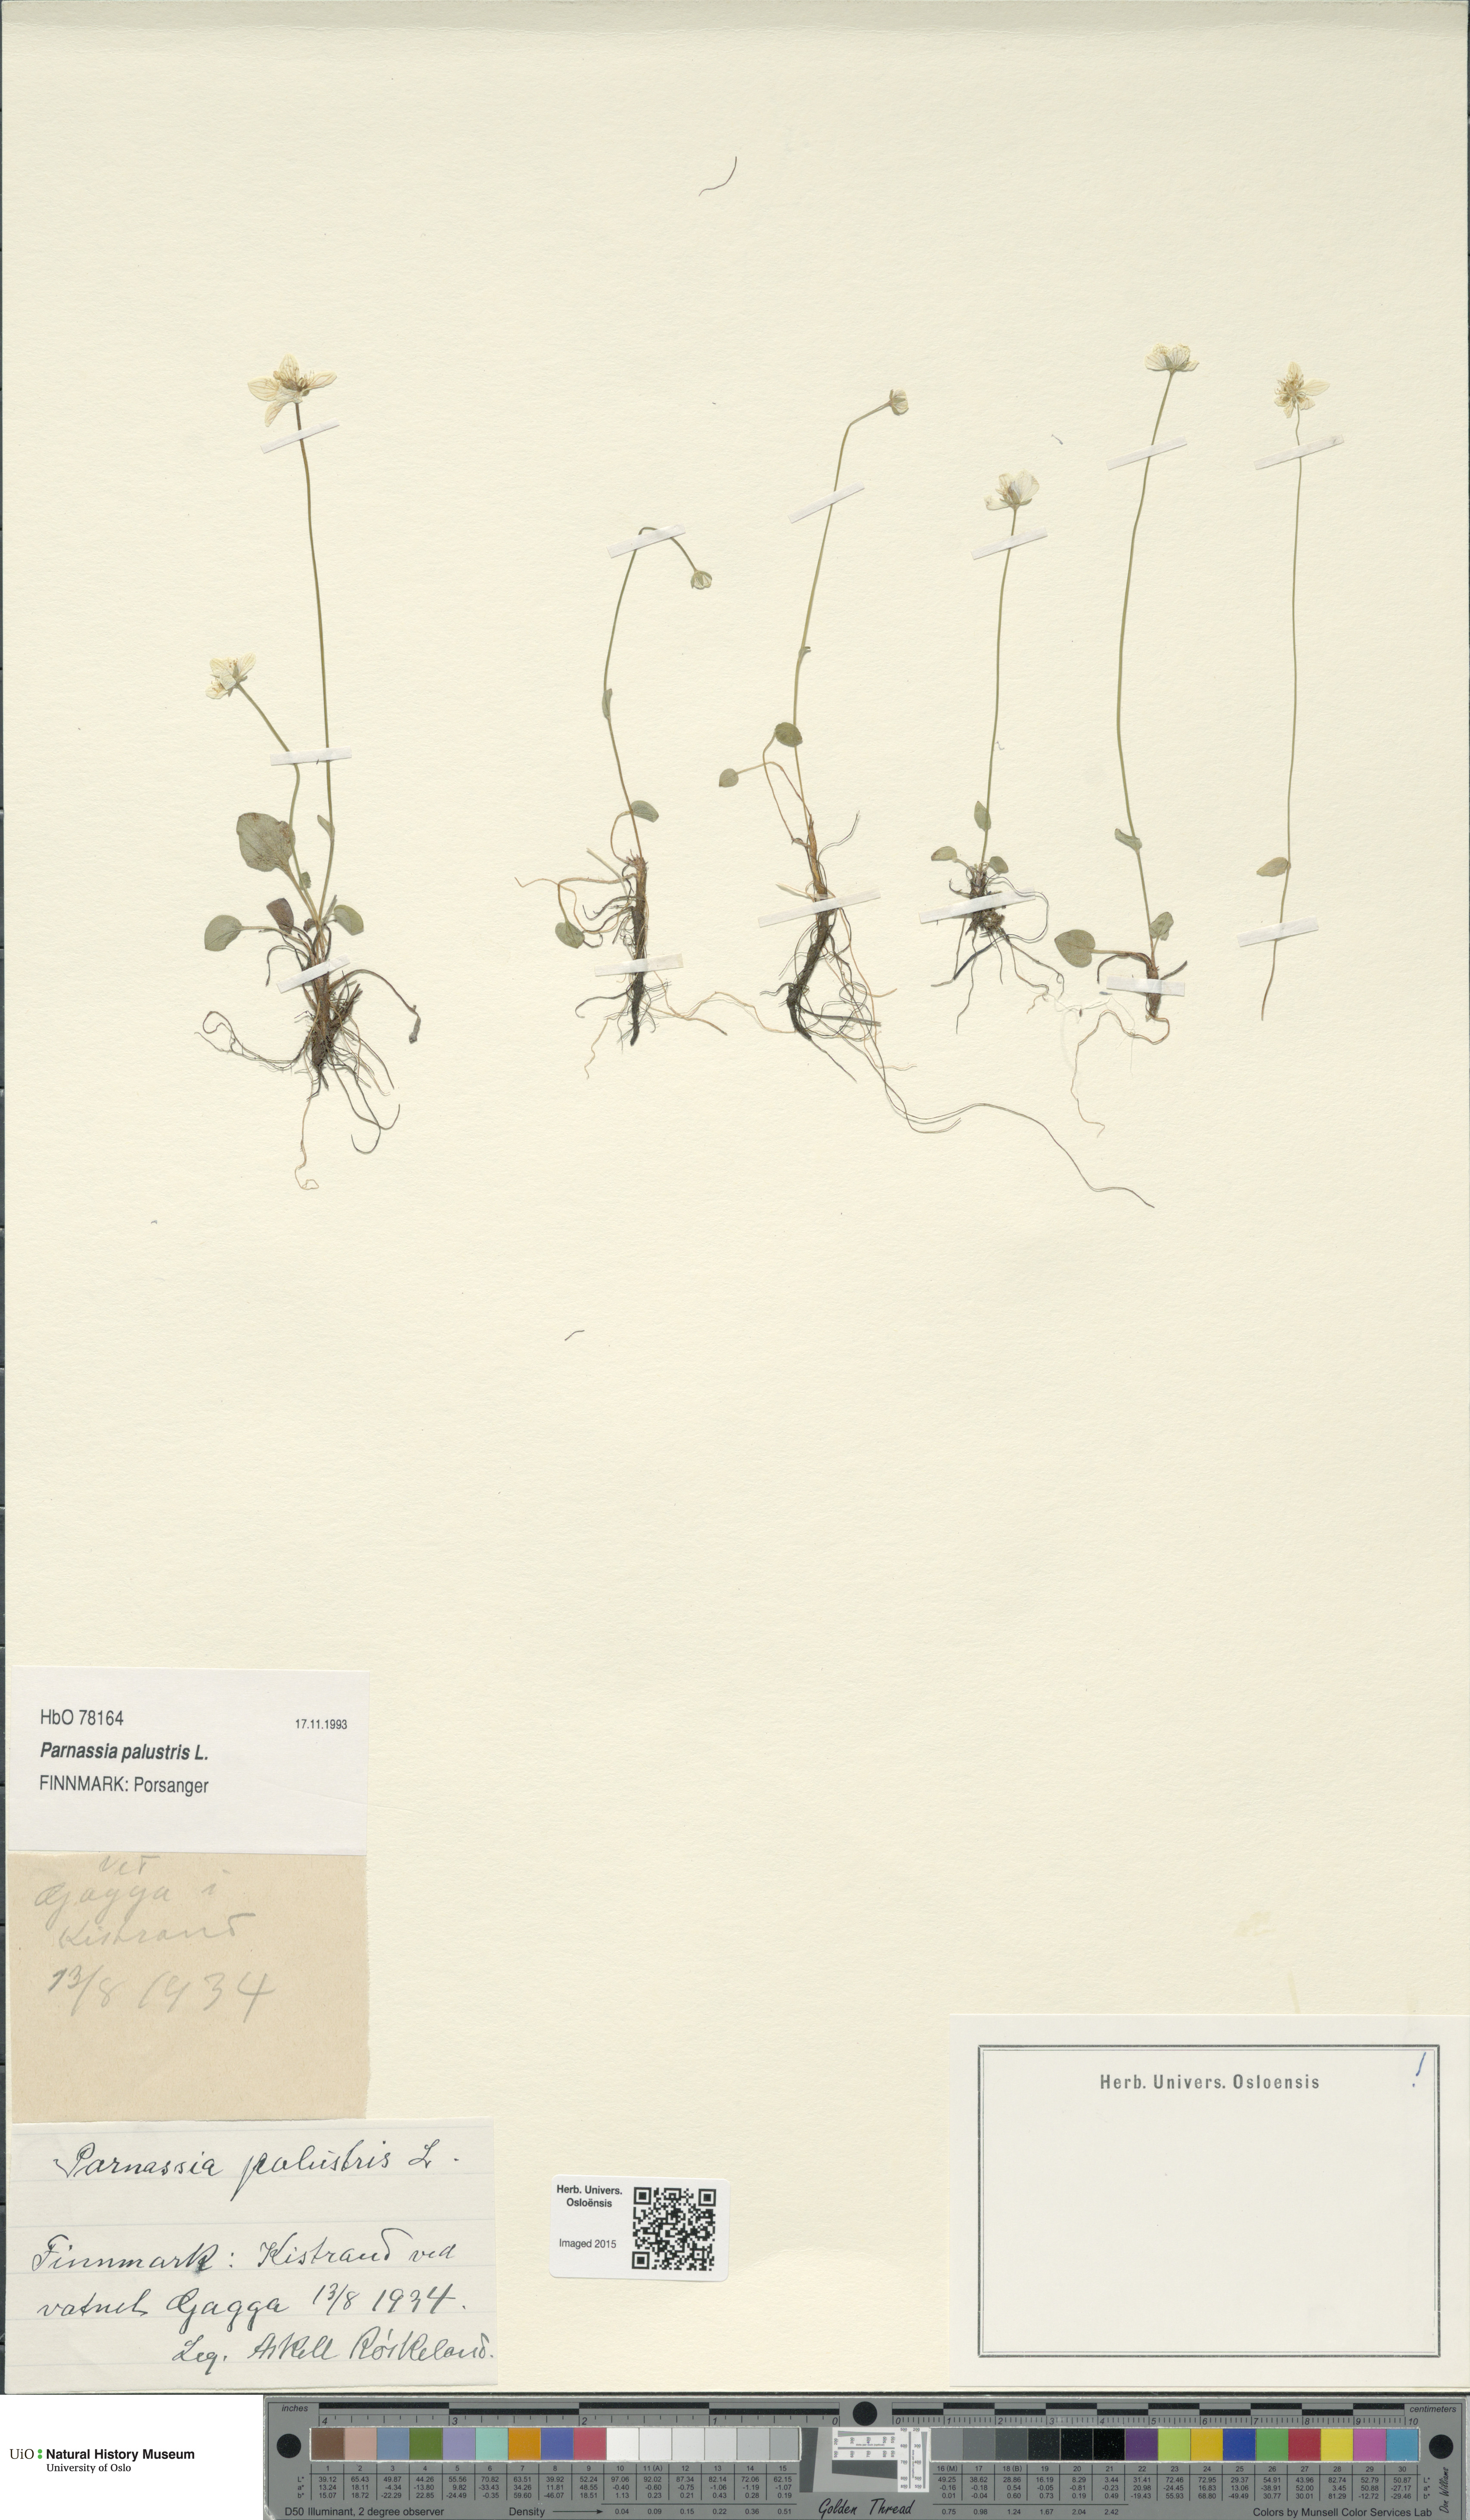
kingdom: Plantae
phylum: Tracheophyta
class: Magnoliopsida
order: Celastrales
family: Parnassiaceae
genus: Parnassia
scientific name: Parnassia palustris
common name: Grass-of-parnassus
